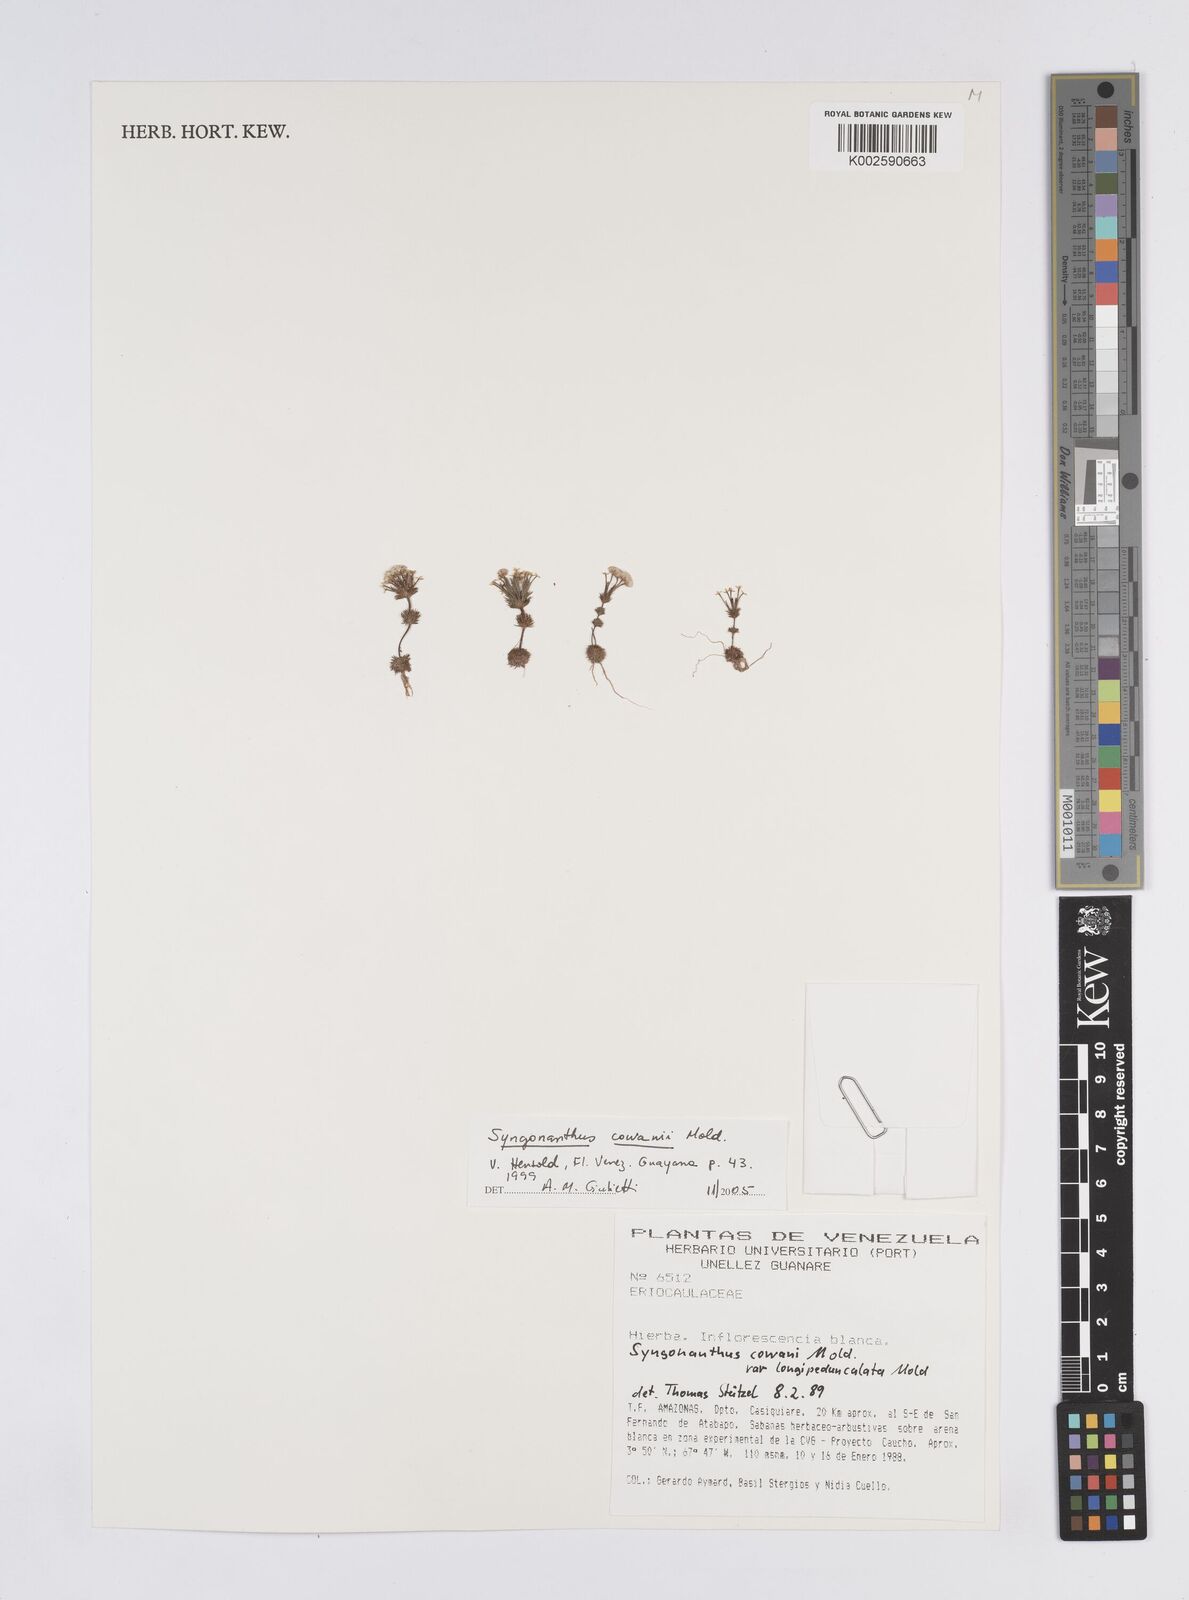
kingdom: Plantae
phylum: Tracheophyta
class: Liliopsida
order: Poales
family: Eriocaulaceae
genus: Syngonanthus
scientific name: Syngonanthus cowanii
